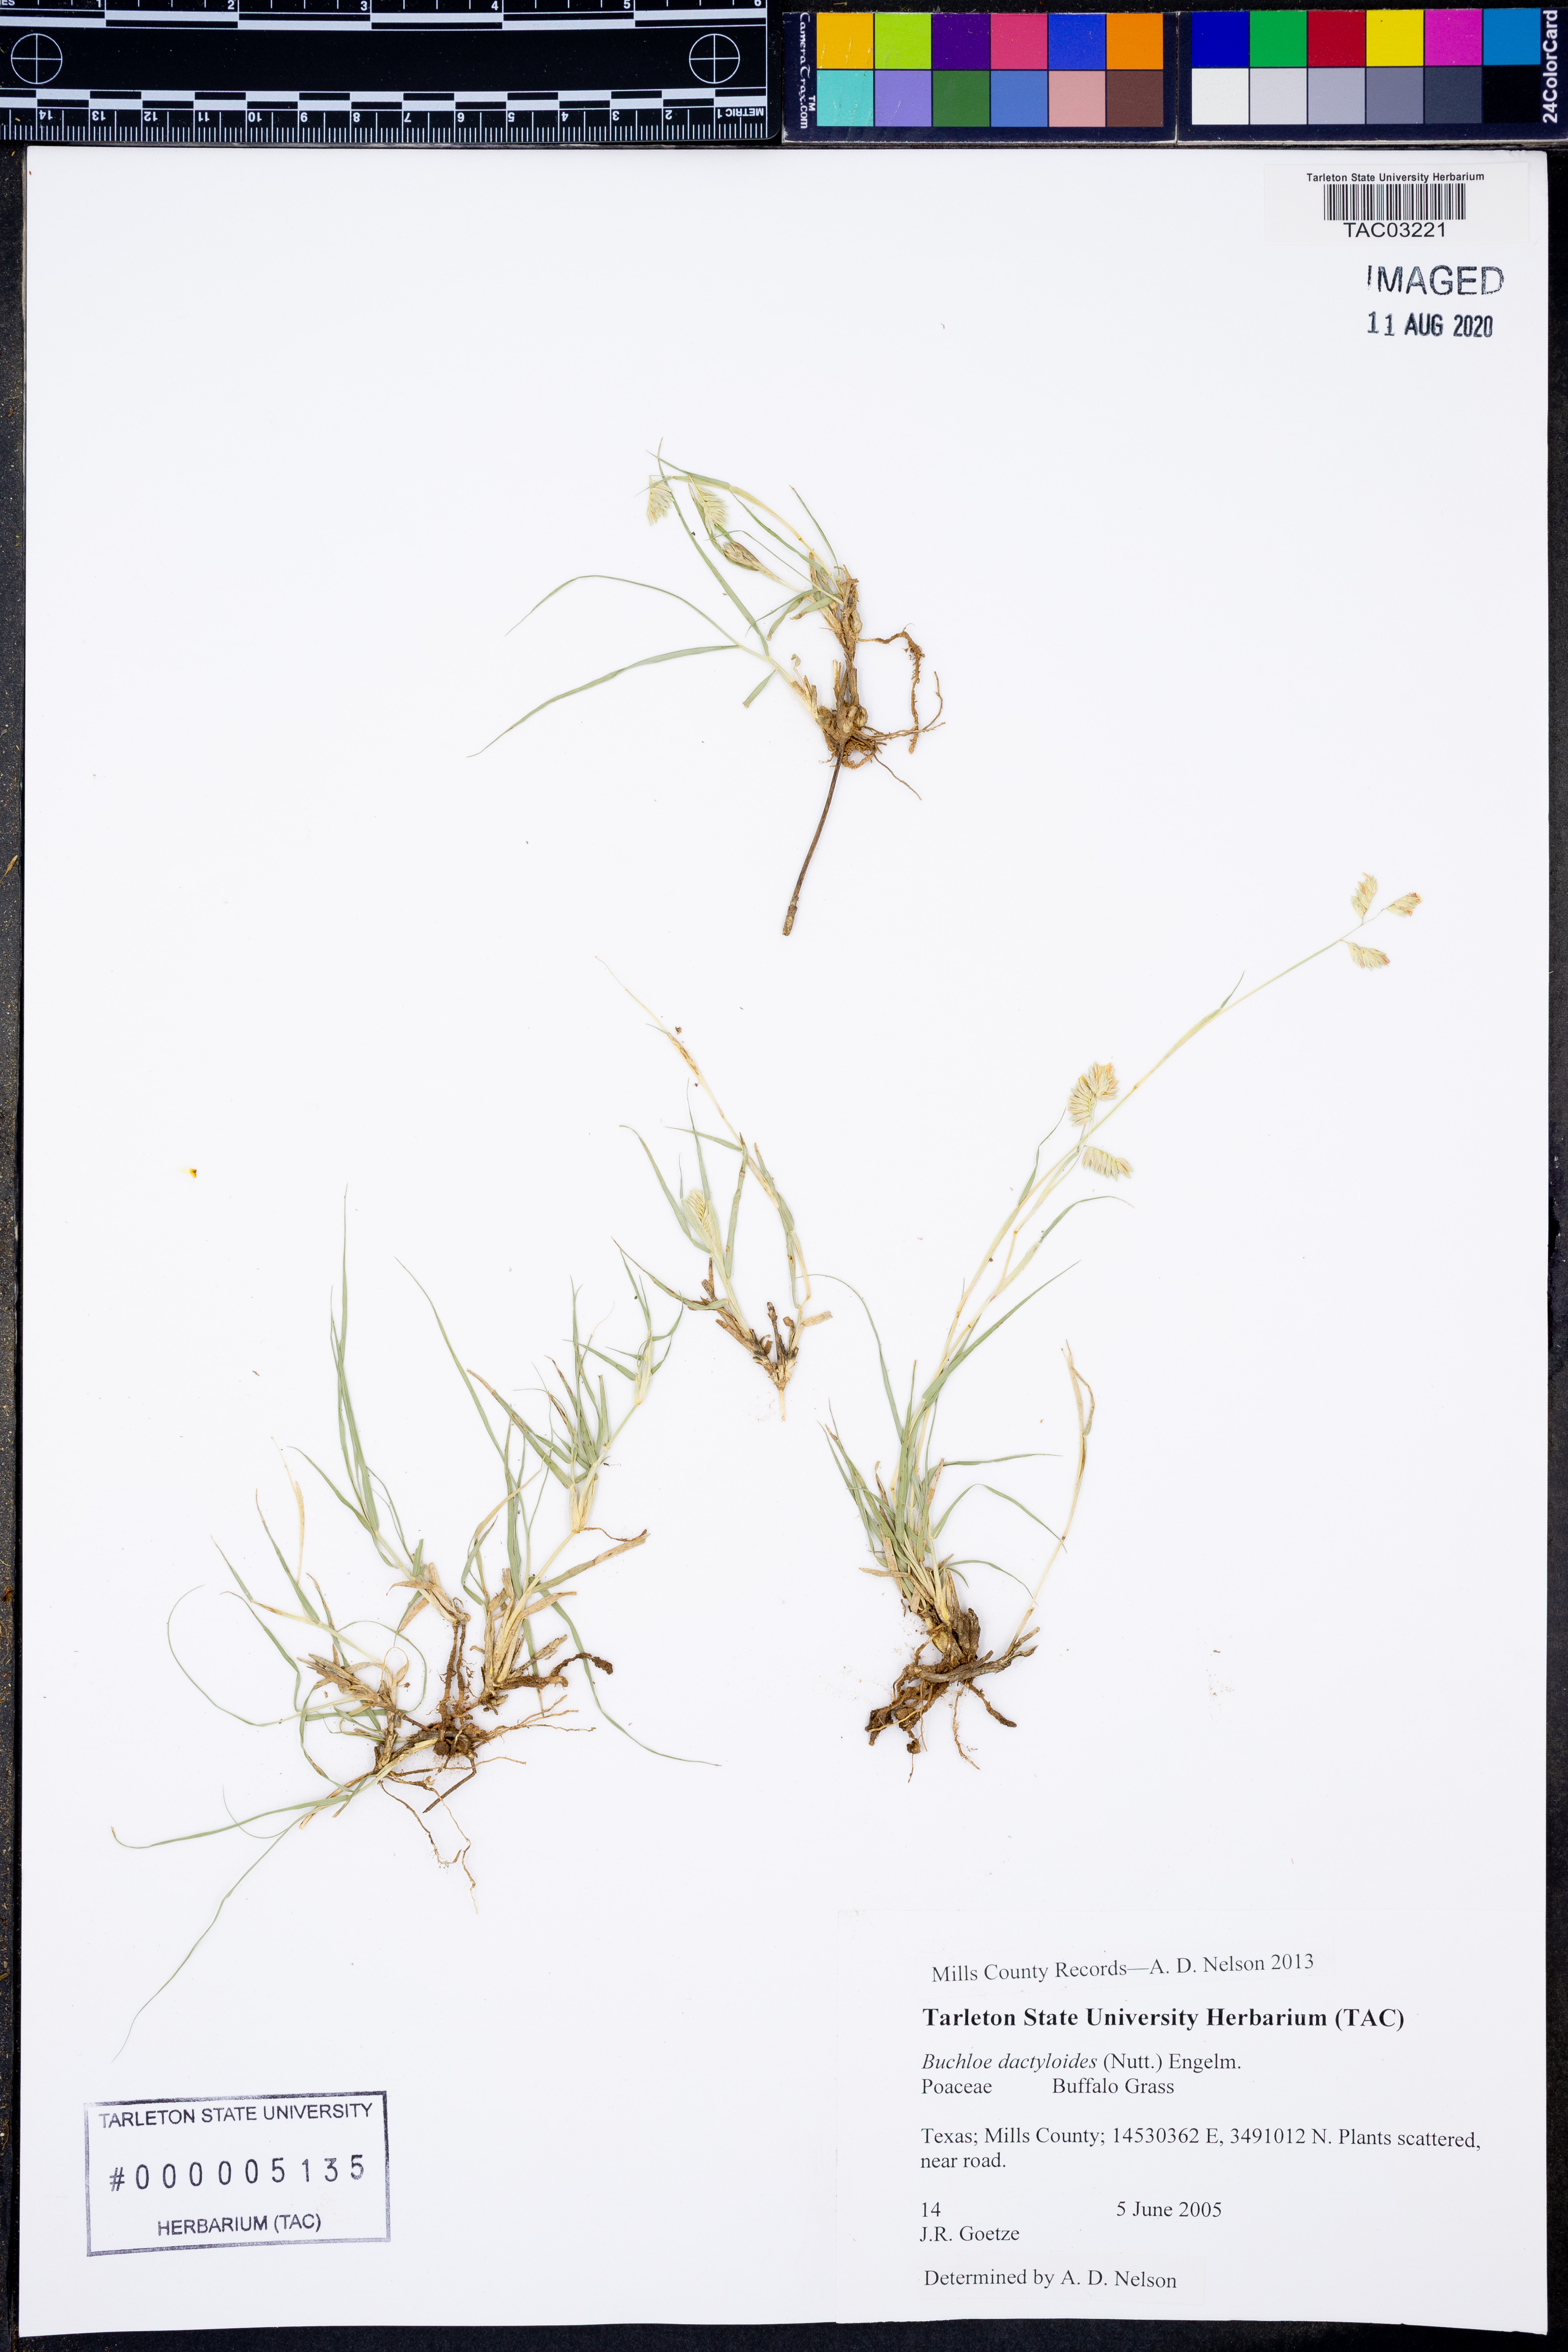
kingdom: Plantae
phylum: Tracheophyta
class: Liliopsida
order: Poales
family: Poaceae
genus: Bouteloua
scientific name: Bouteloua dactyloides
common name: Buffalo grass
